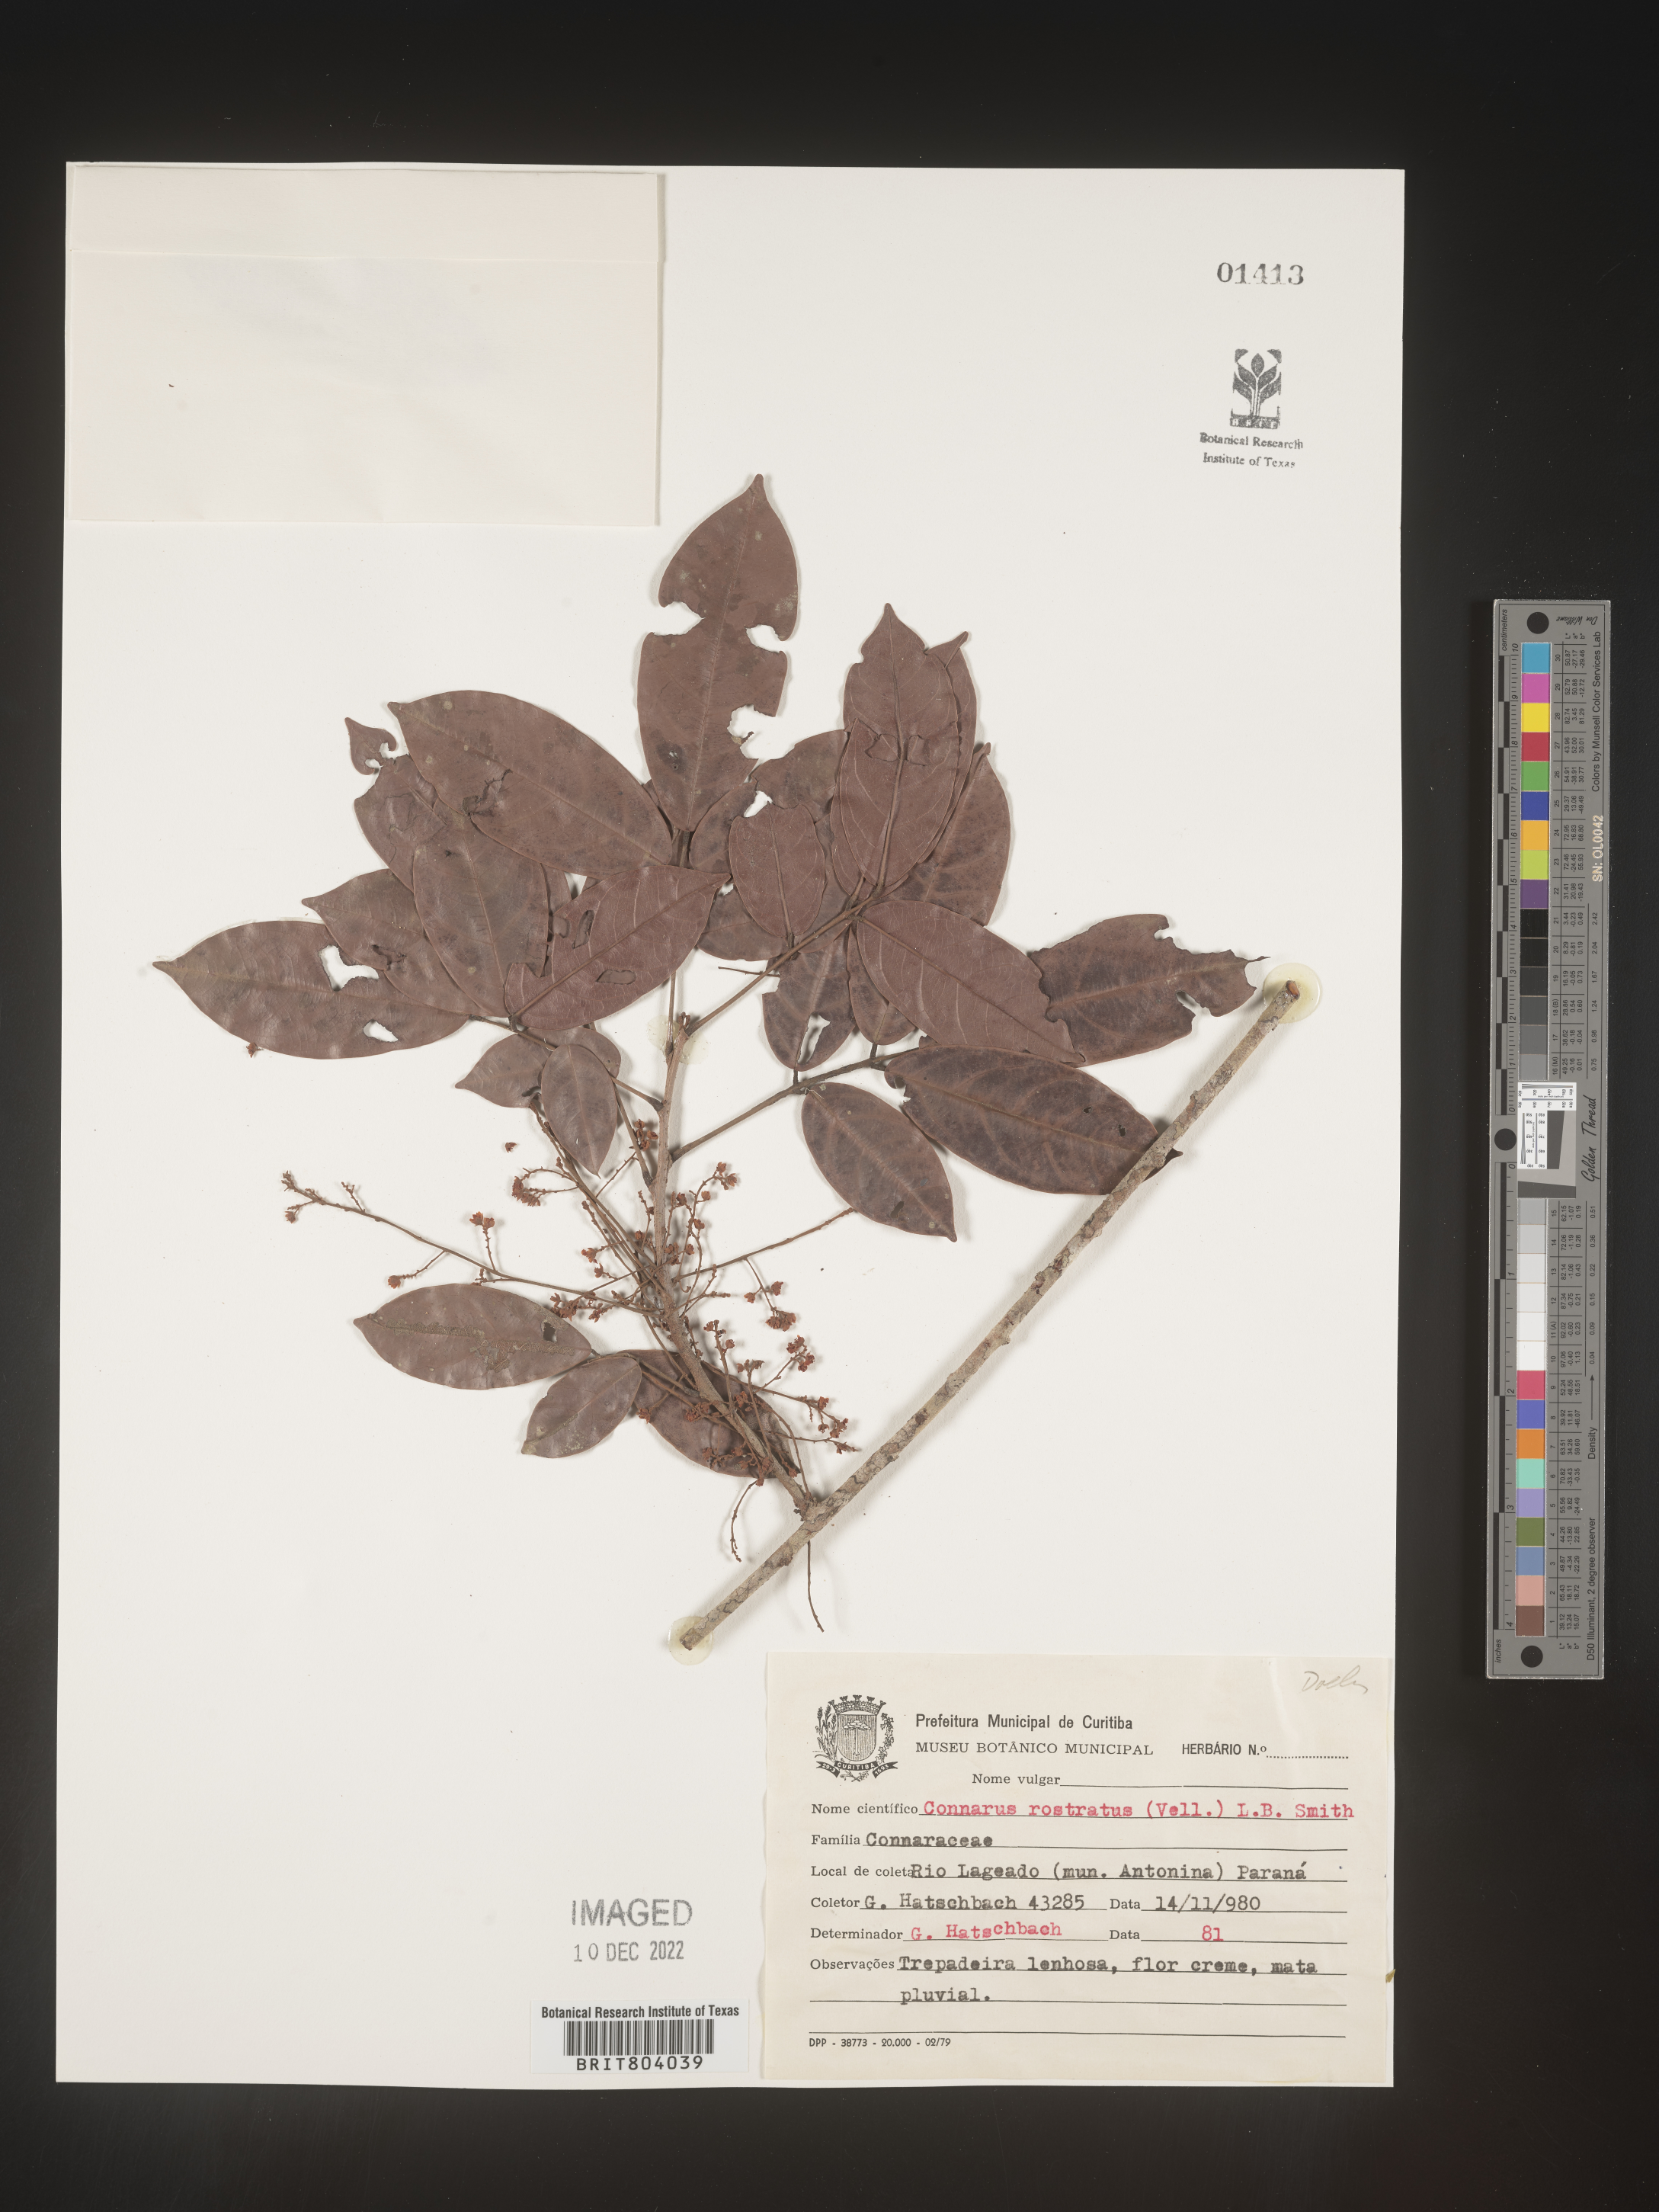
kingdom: Plantae
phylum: Tracheophyta
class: Magnoliopsida
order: Oxalidales
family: Connaraceae
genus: Connarus
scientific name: Connarus
